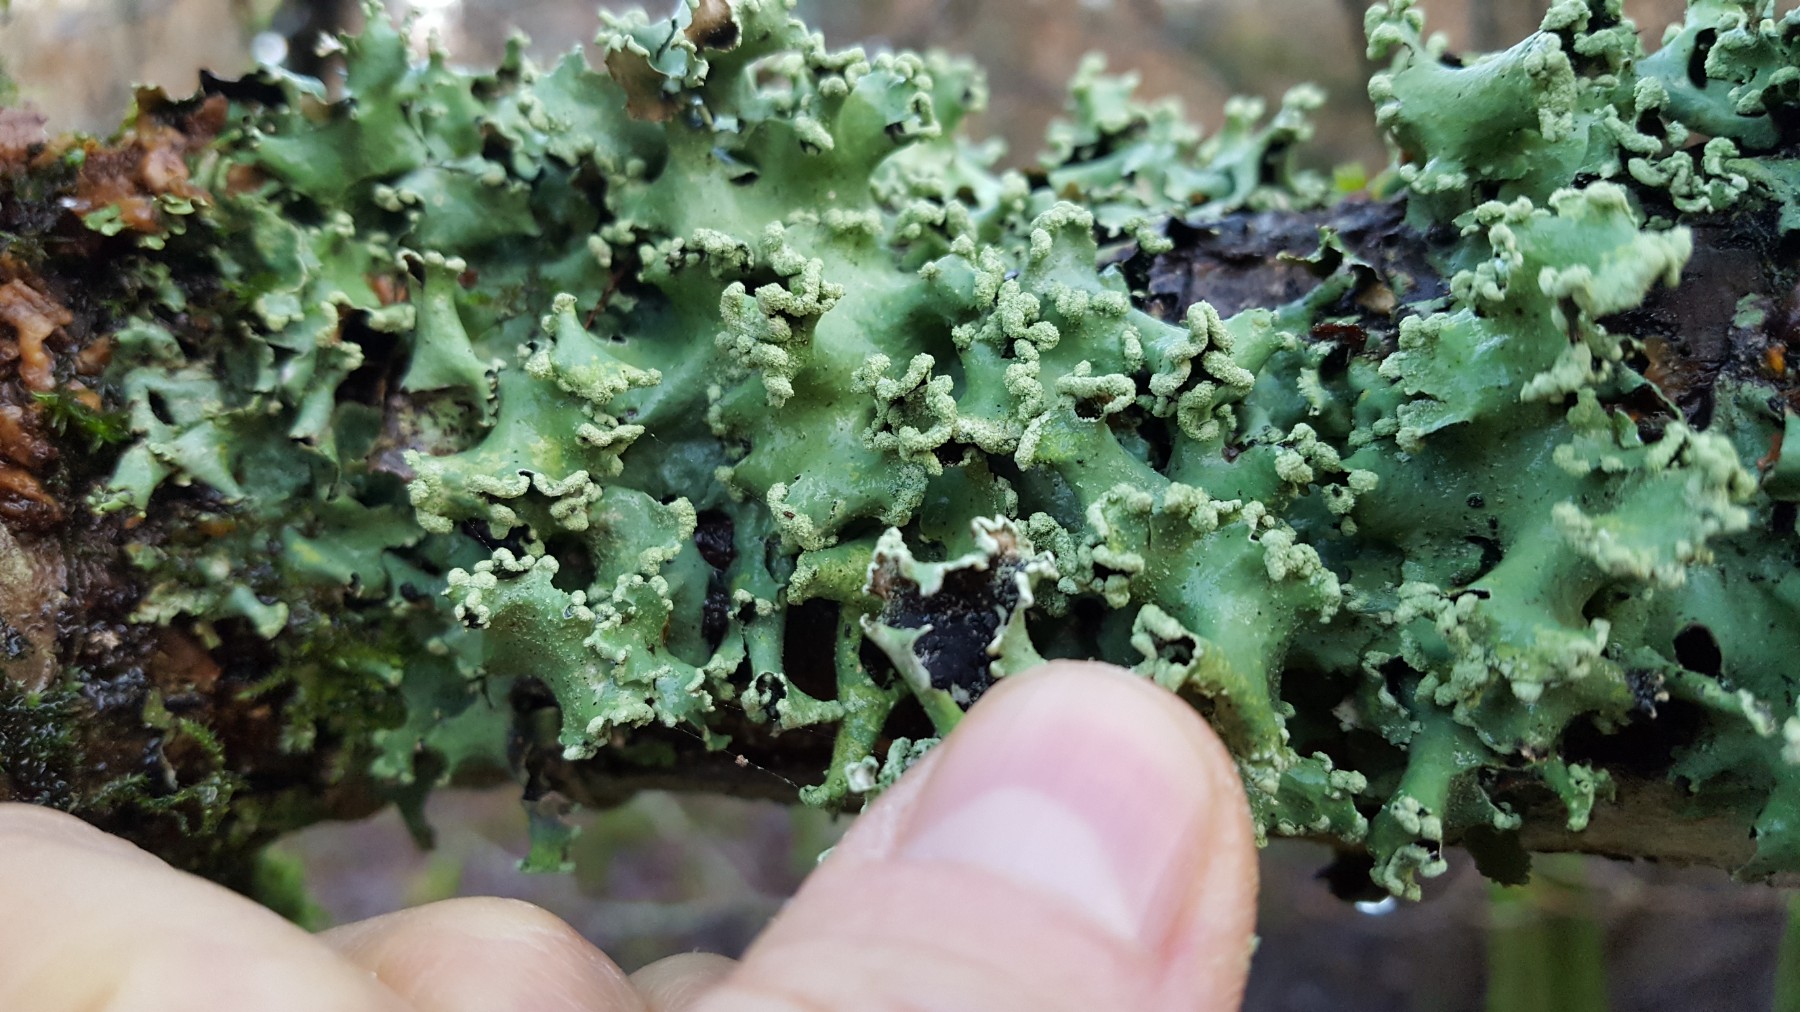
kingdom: Fungi
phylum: Ascomycota
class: Lecanoromycetes
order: Lecanorales
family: Parmeliaceae
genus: Parmotrema
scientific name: Parmotrema perlatum
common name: trådet skållav
